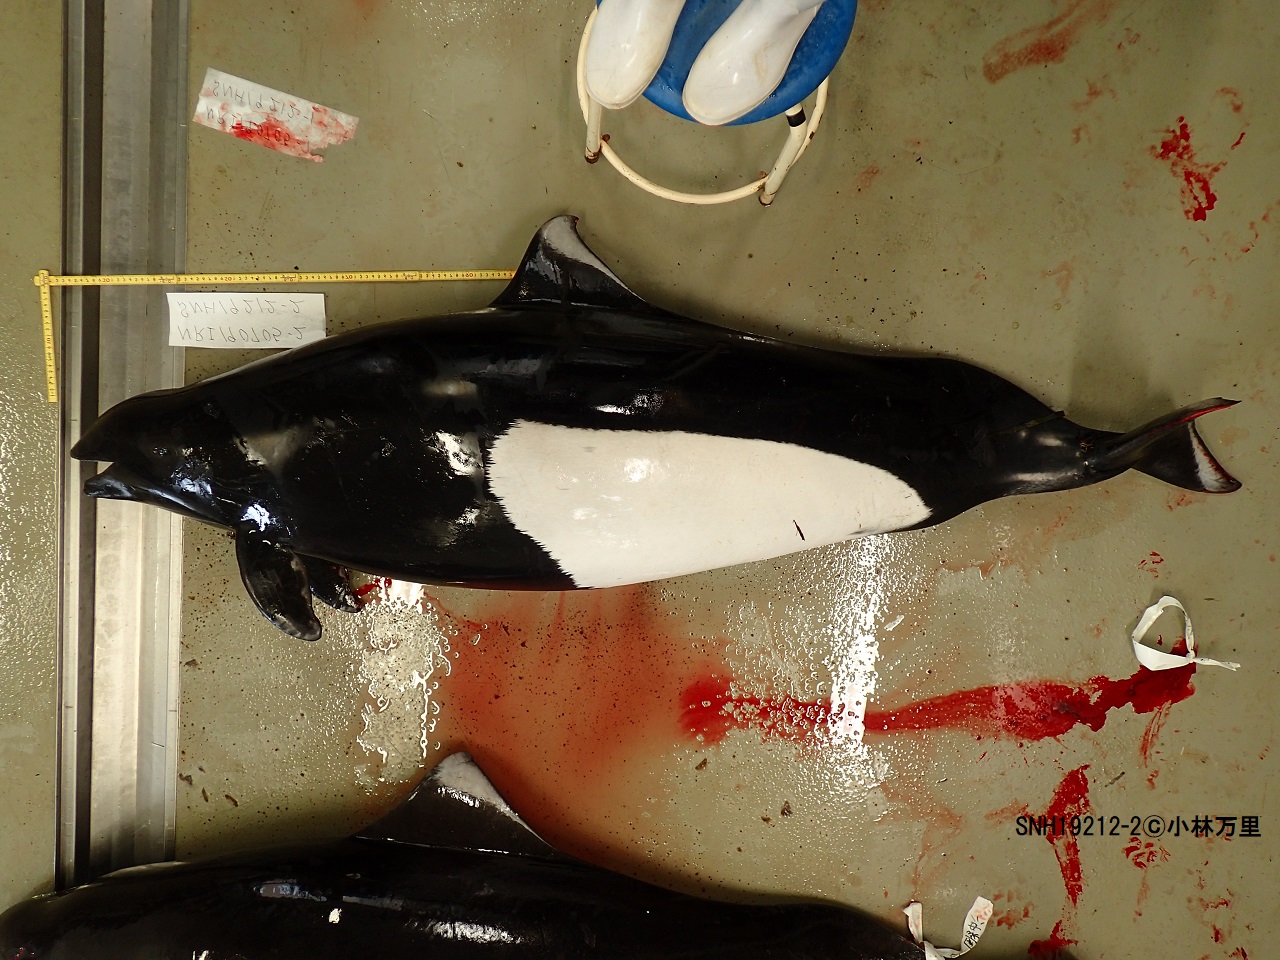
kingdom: Animalia
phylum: Chordata
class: Mammalia
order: Cetacea
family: Phocoenidae
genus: Phocoenoides
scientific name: Phocoenoides dalli
